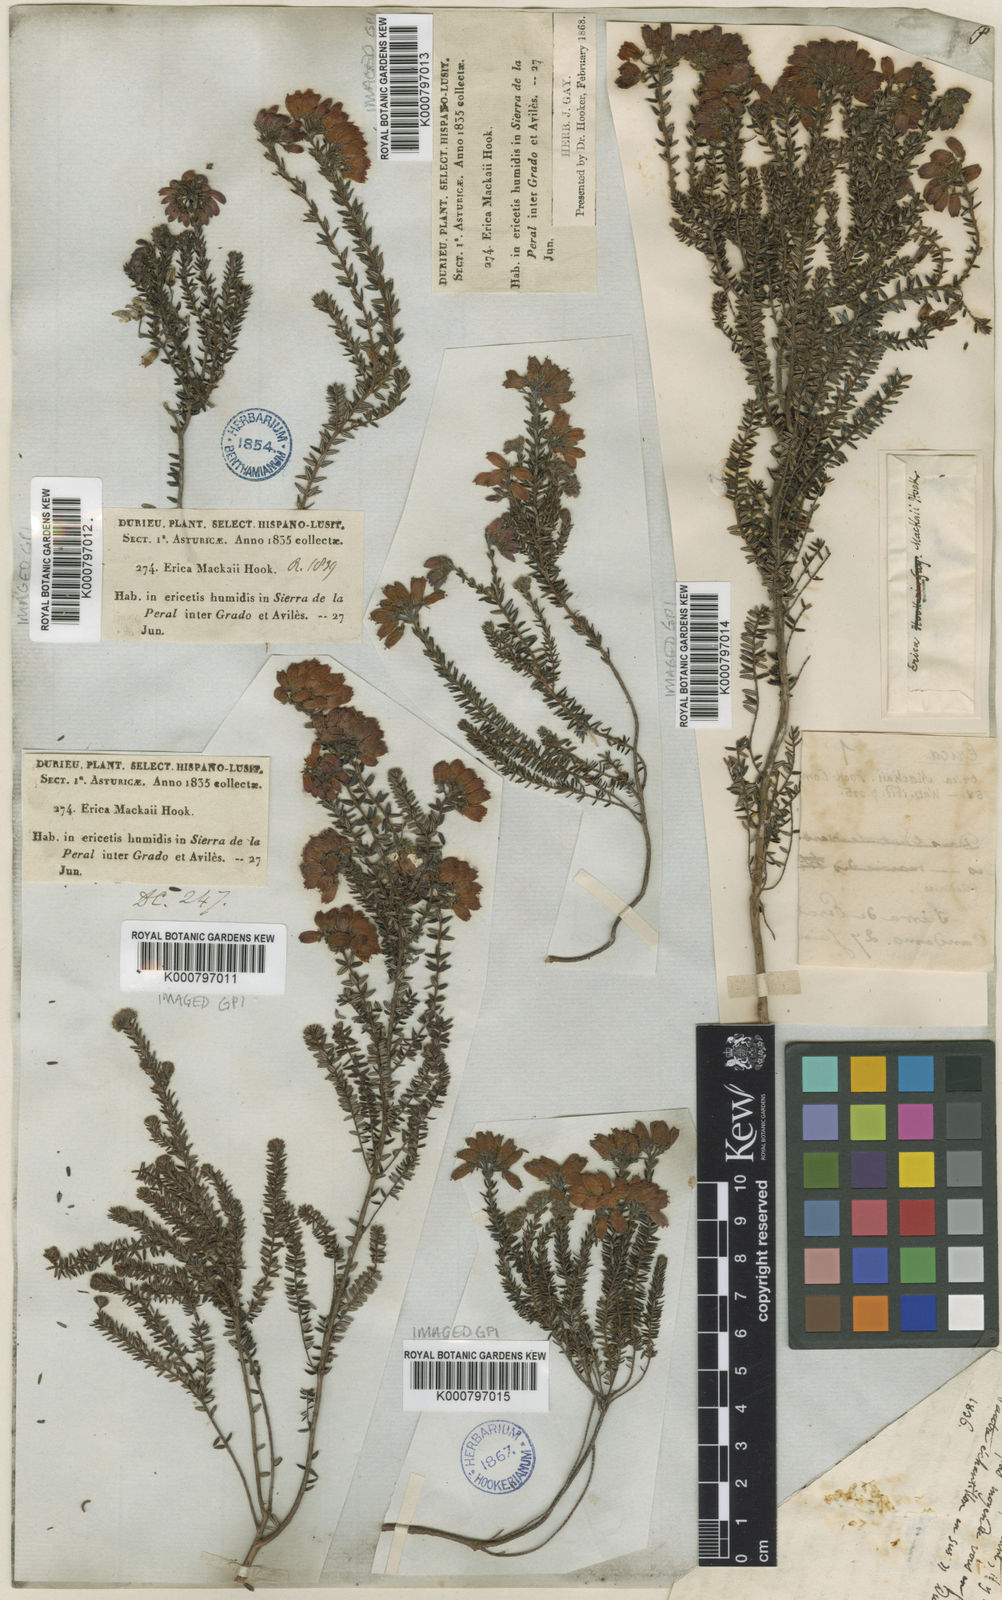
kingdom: Plantae
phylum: Tracheophyta
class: Magnoliopsida
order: Ericales
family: Ericaceae
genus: Erica
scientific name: Erica
